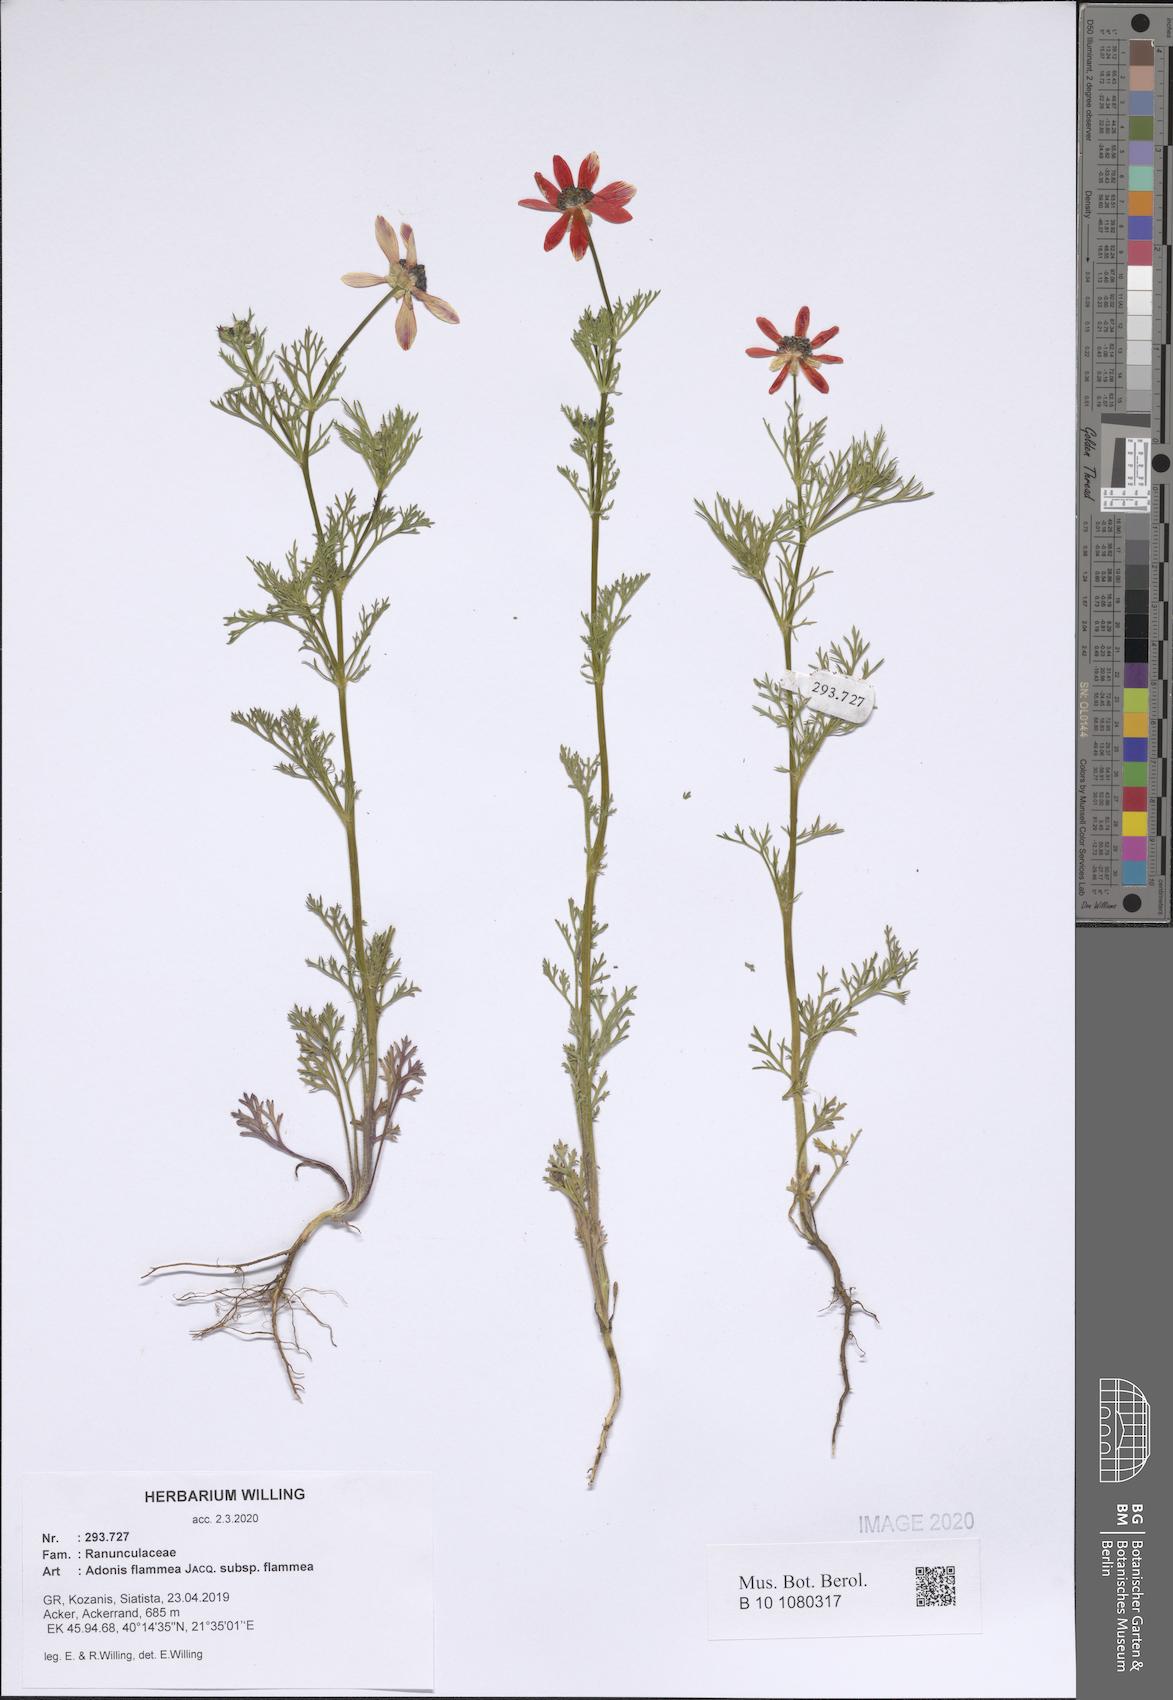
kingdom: Plantae
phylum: Tracheophyta
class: Magnoliopsida
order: Ranunculales
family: Ranunculaceae
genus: Adonis
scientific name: Adonis flammea
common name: Large pheasant's-eye
